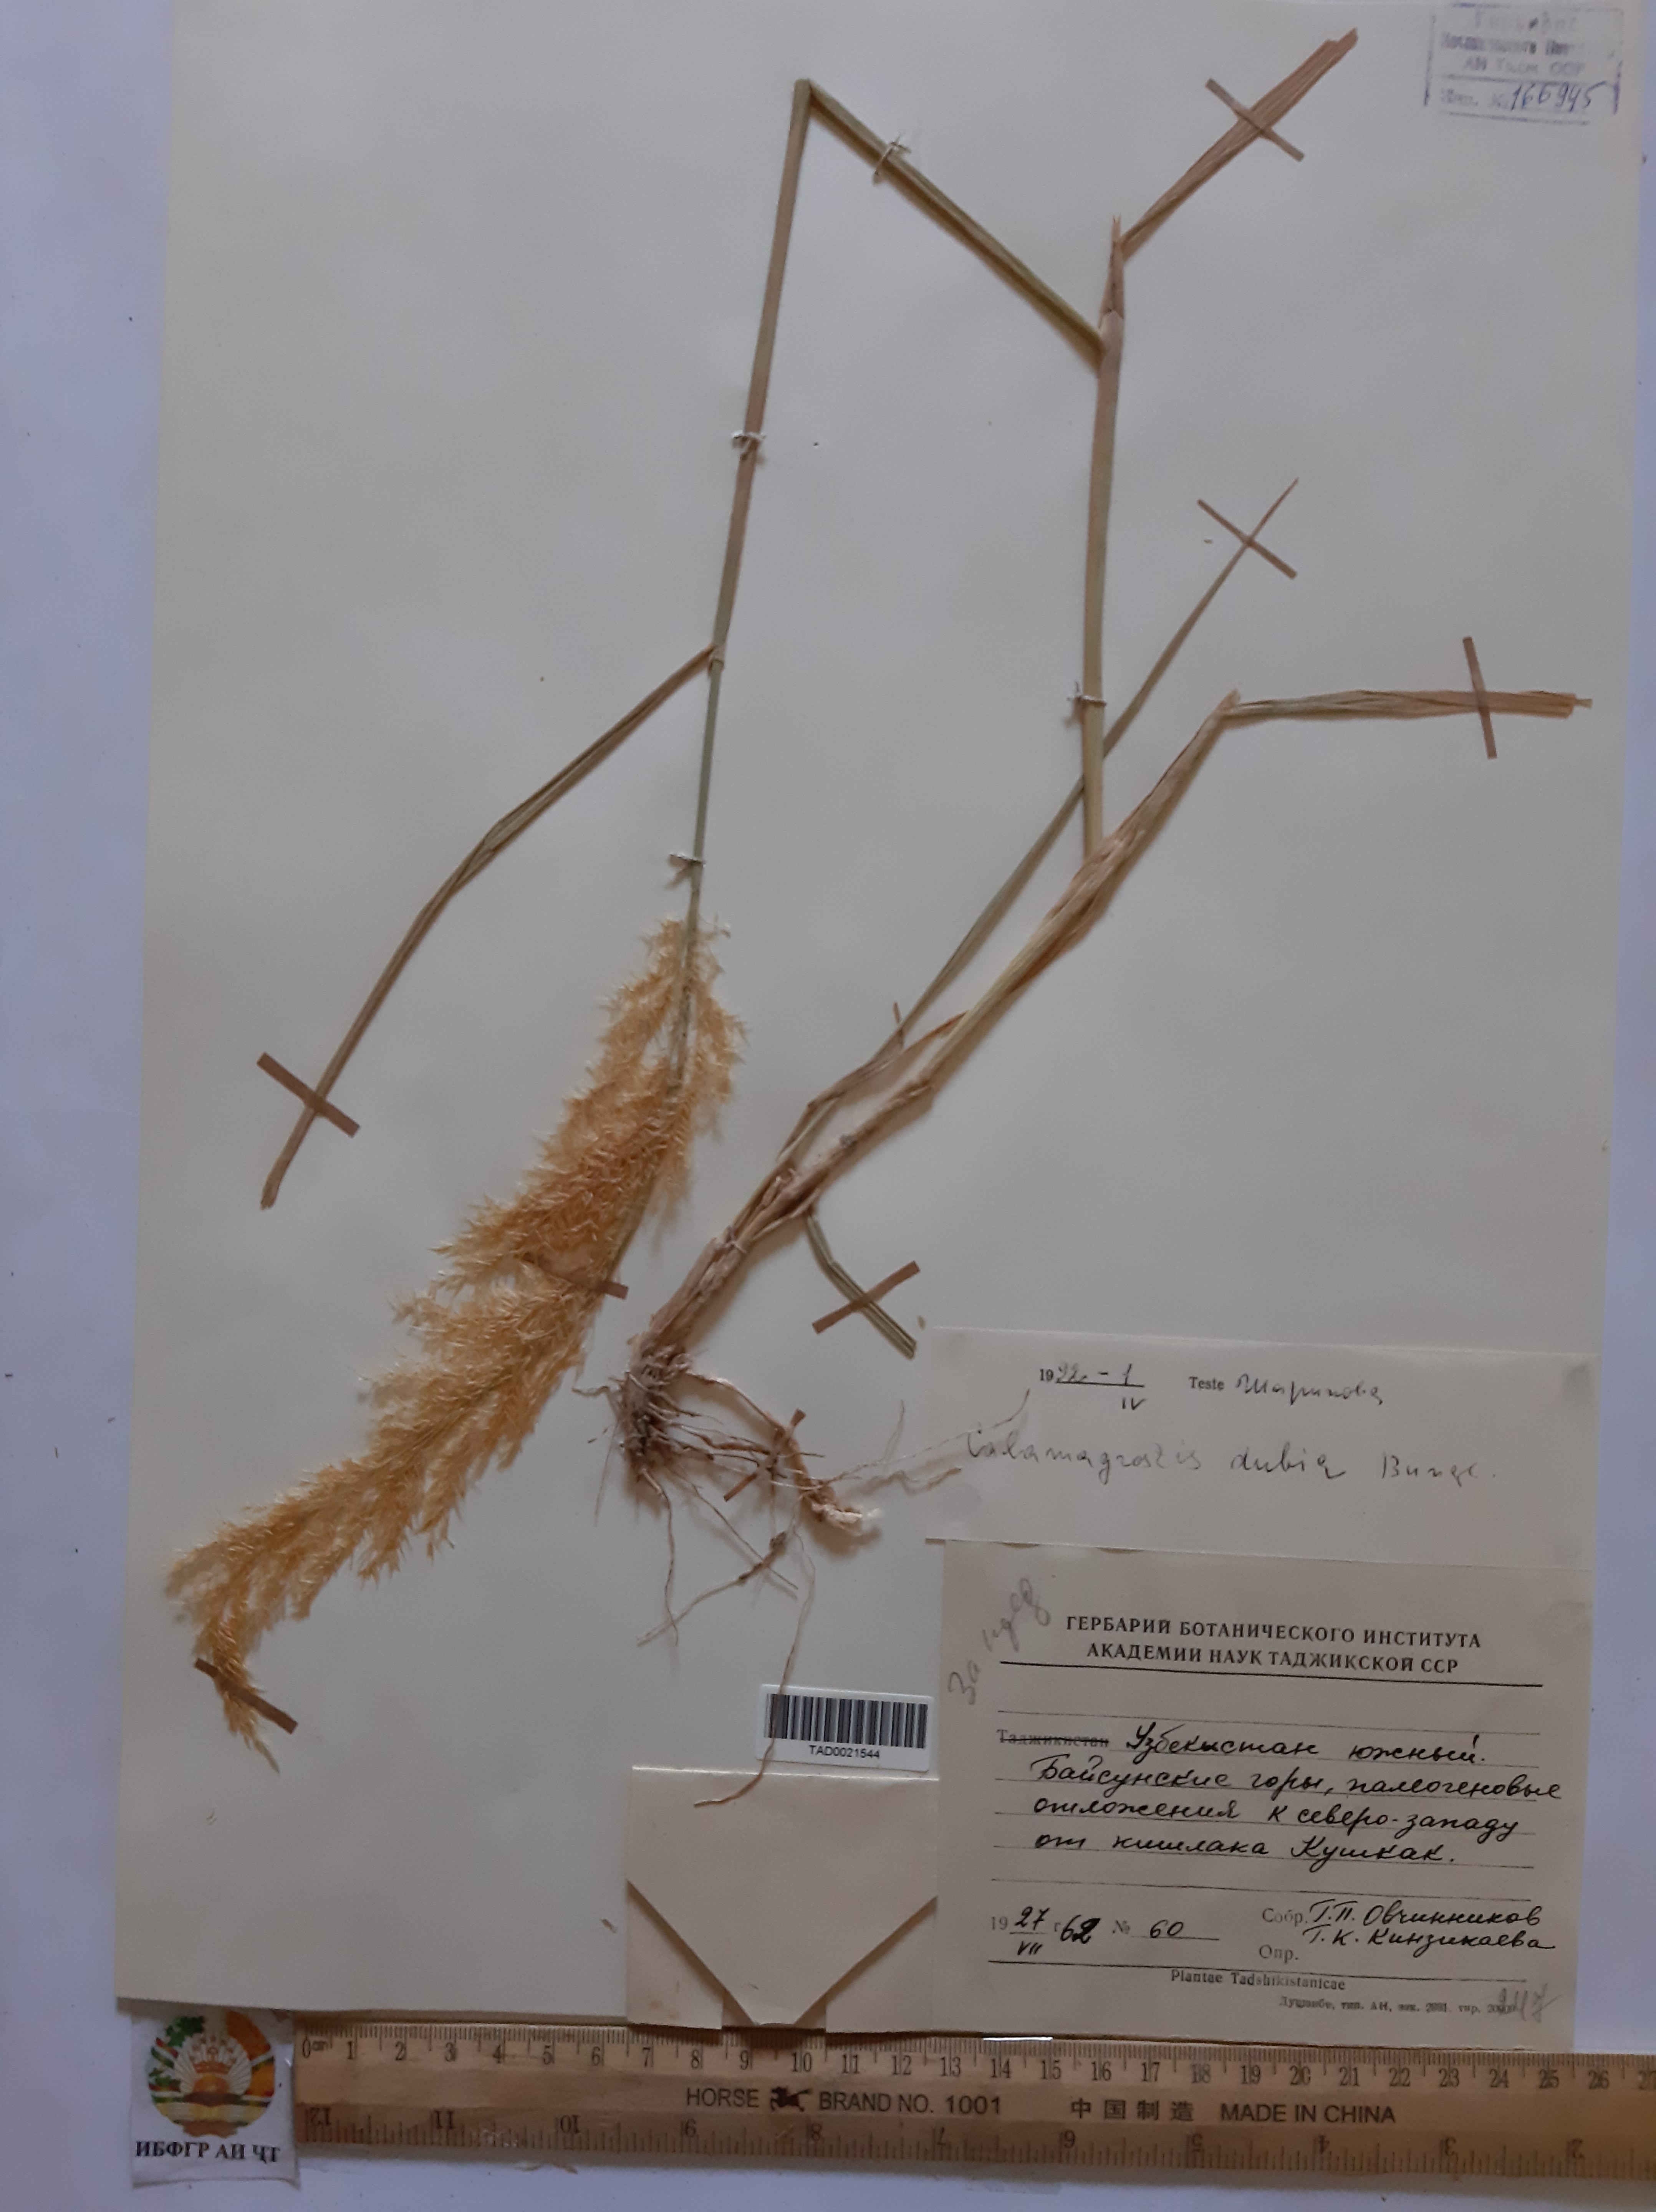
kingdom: Plantae
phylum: Tracheophyta
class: Liliopsida
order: Poales
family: Poaceae
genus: Calamagrostis
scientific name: Calamagrostis pseudophragmites
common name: Coastal small-reed
